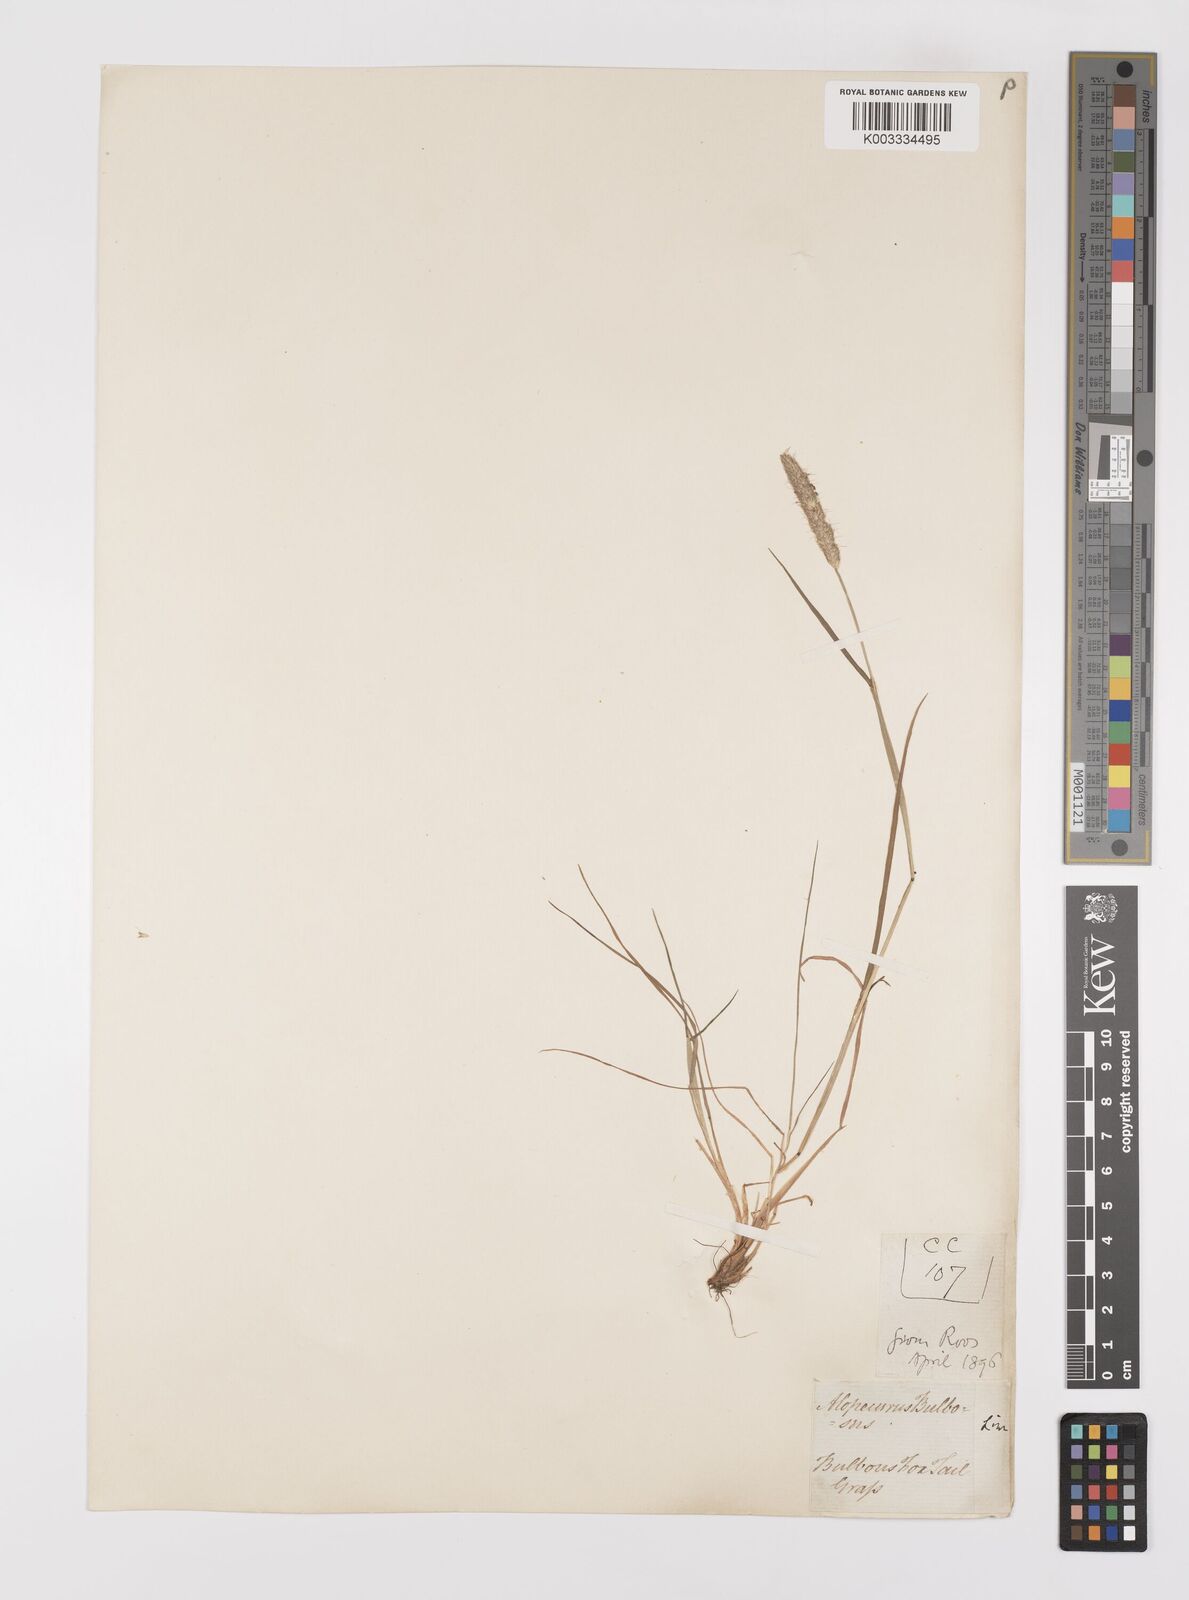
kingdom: Plantae
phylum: Tracheophyta
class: Liliopsida
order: Poales
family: Poaceae
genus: Alopecurus
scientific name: Alopecurus bulbosus
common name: Bulbous foxtail
